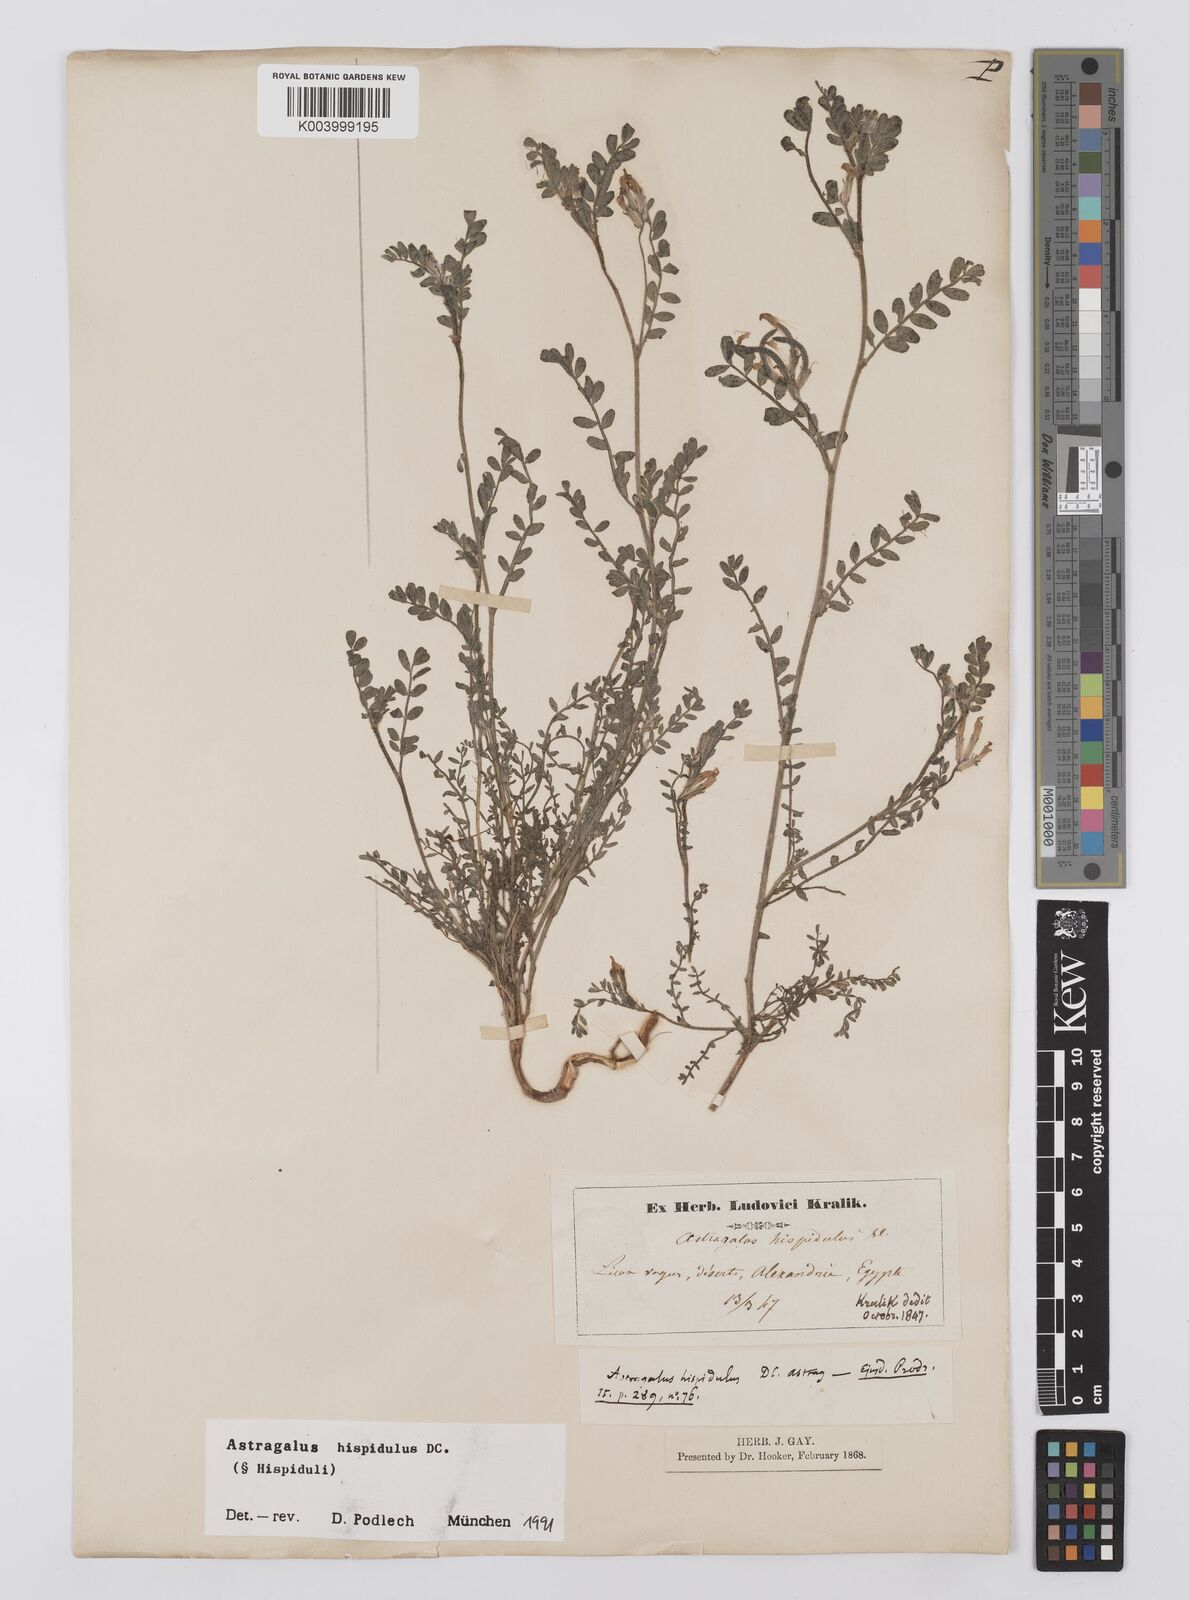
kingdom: Plantae
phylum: Tracheophyta
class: Magnoliopsida
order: Fabales
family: Fabaceae
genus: Astragalus
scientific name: Astragalus hispidulus
